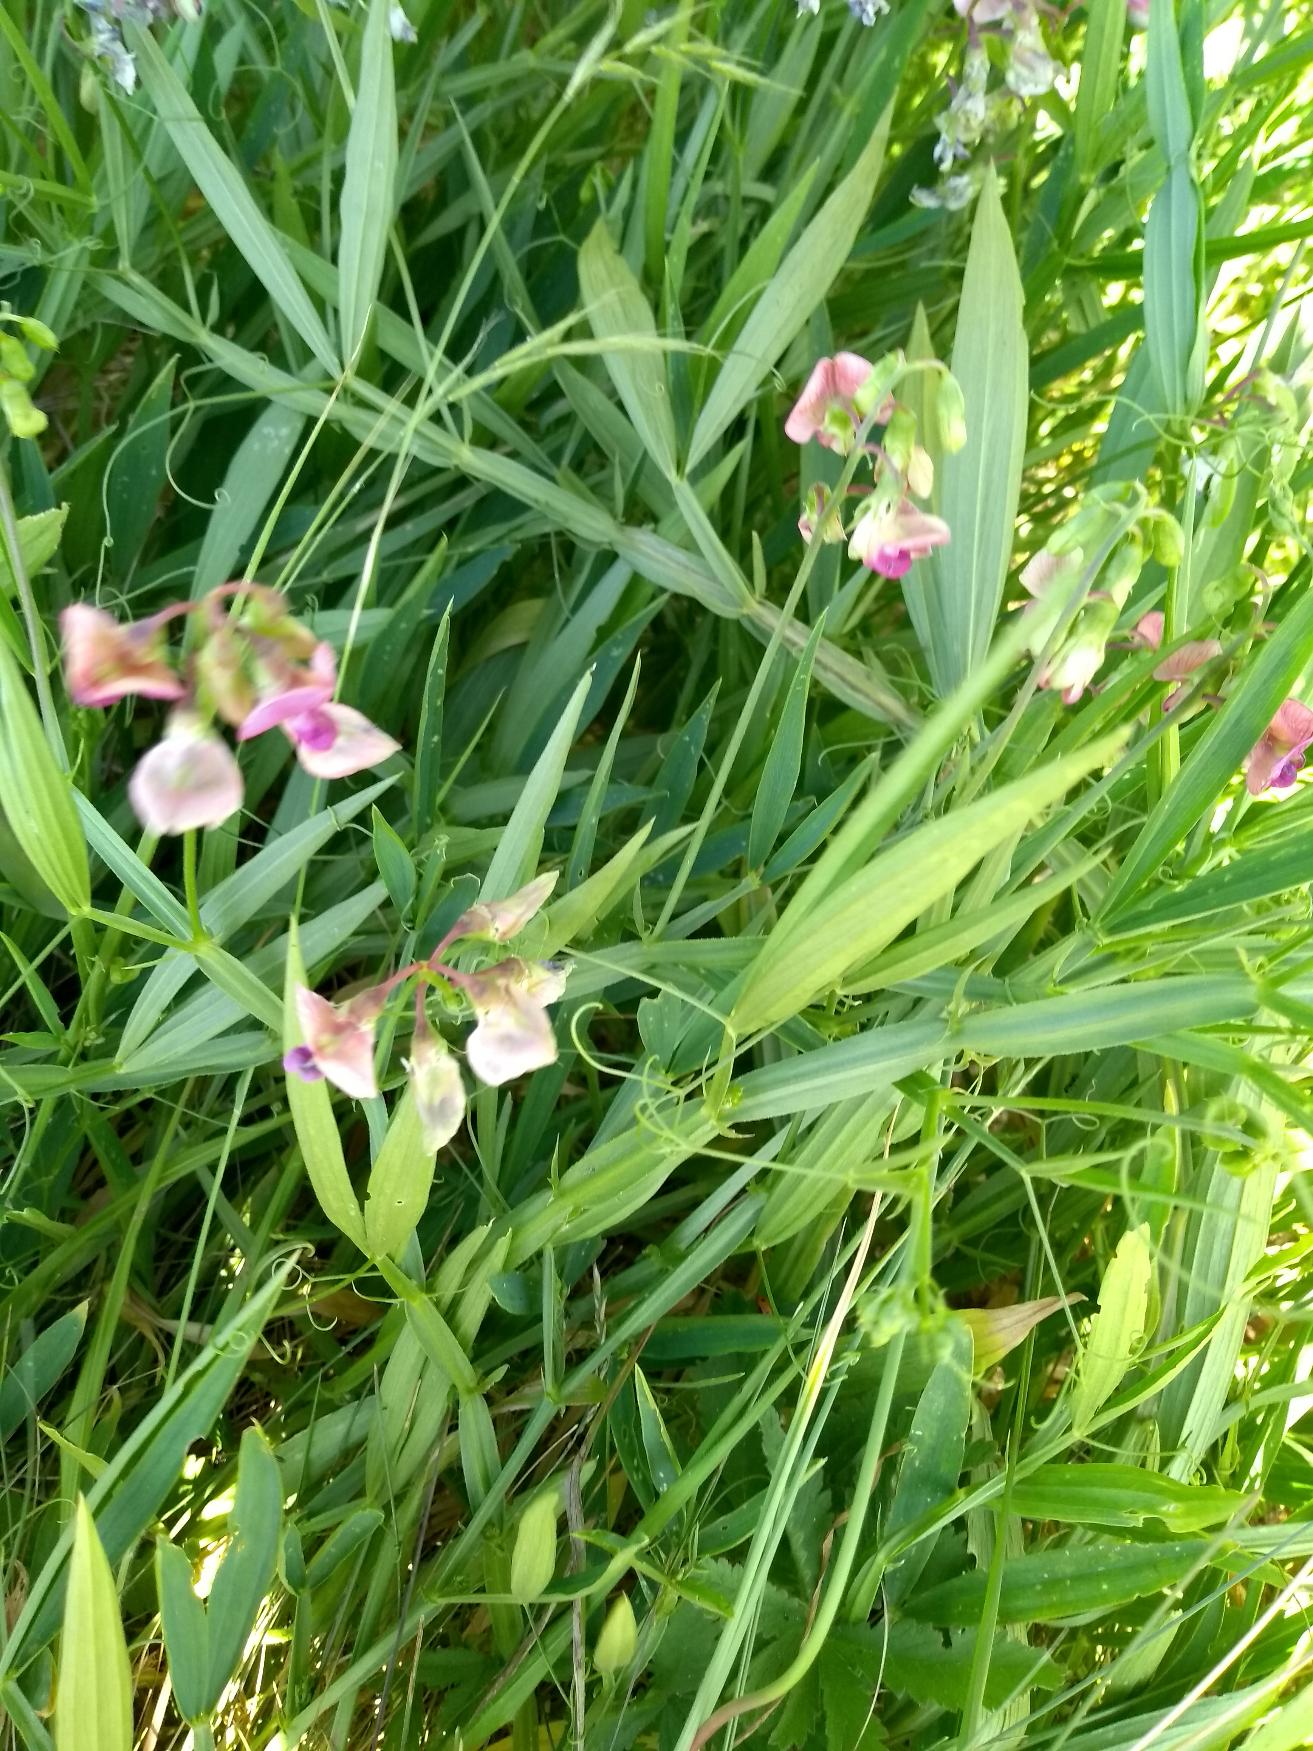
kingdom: Plantae
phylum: Tracheophyta
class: Magnoliopsida
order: Fabales
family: Fabaceae
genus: Lathyrus
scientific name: Lathyrus sylvestris
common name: Skov-fladbælg
